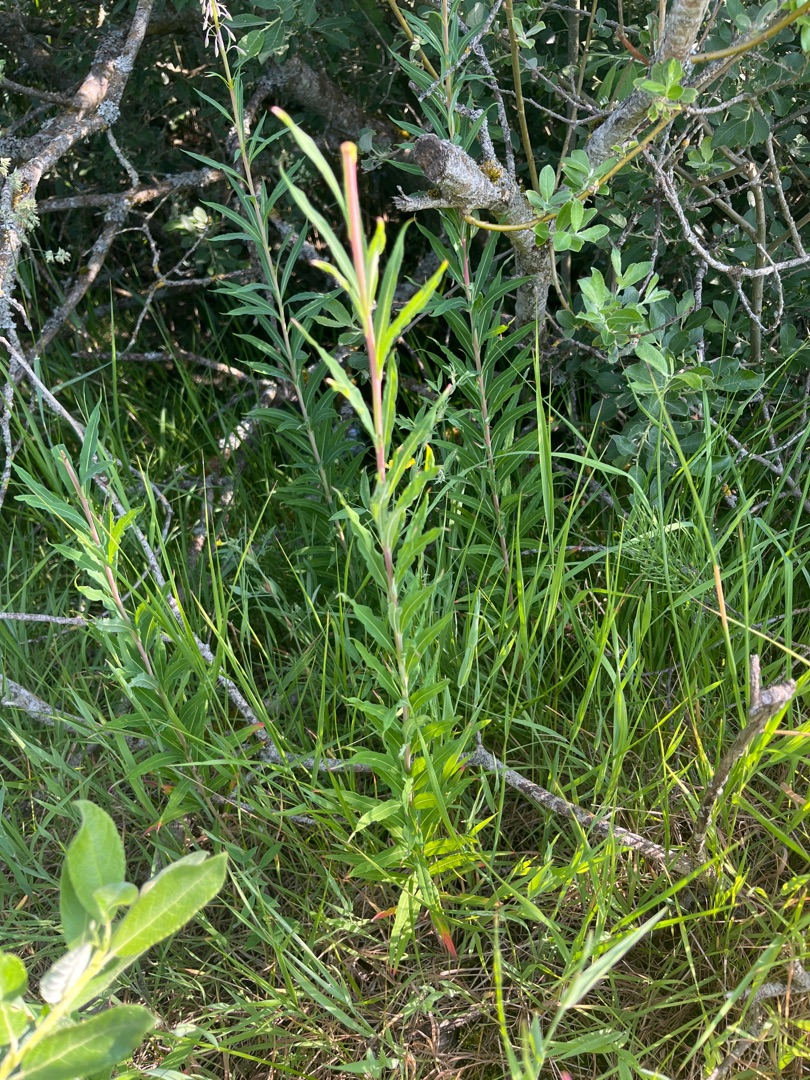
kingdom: Plantae
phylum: Tracheophyta
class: Magnoliopsida
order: Myrtales
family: Onagraceae
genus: Chamaenerion
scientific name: Chamaenerion angustifolium
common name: Gederams
